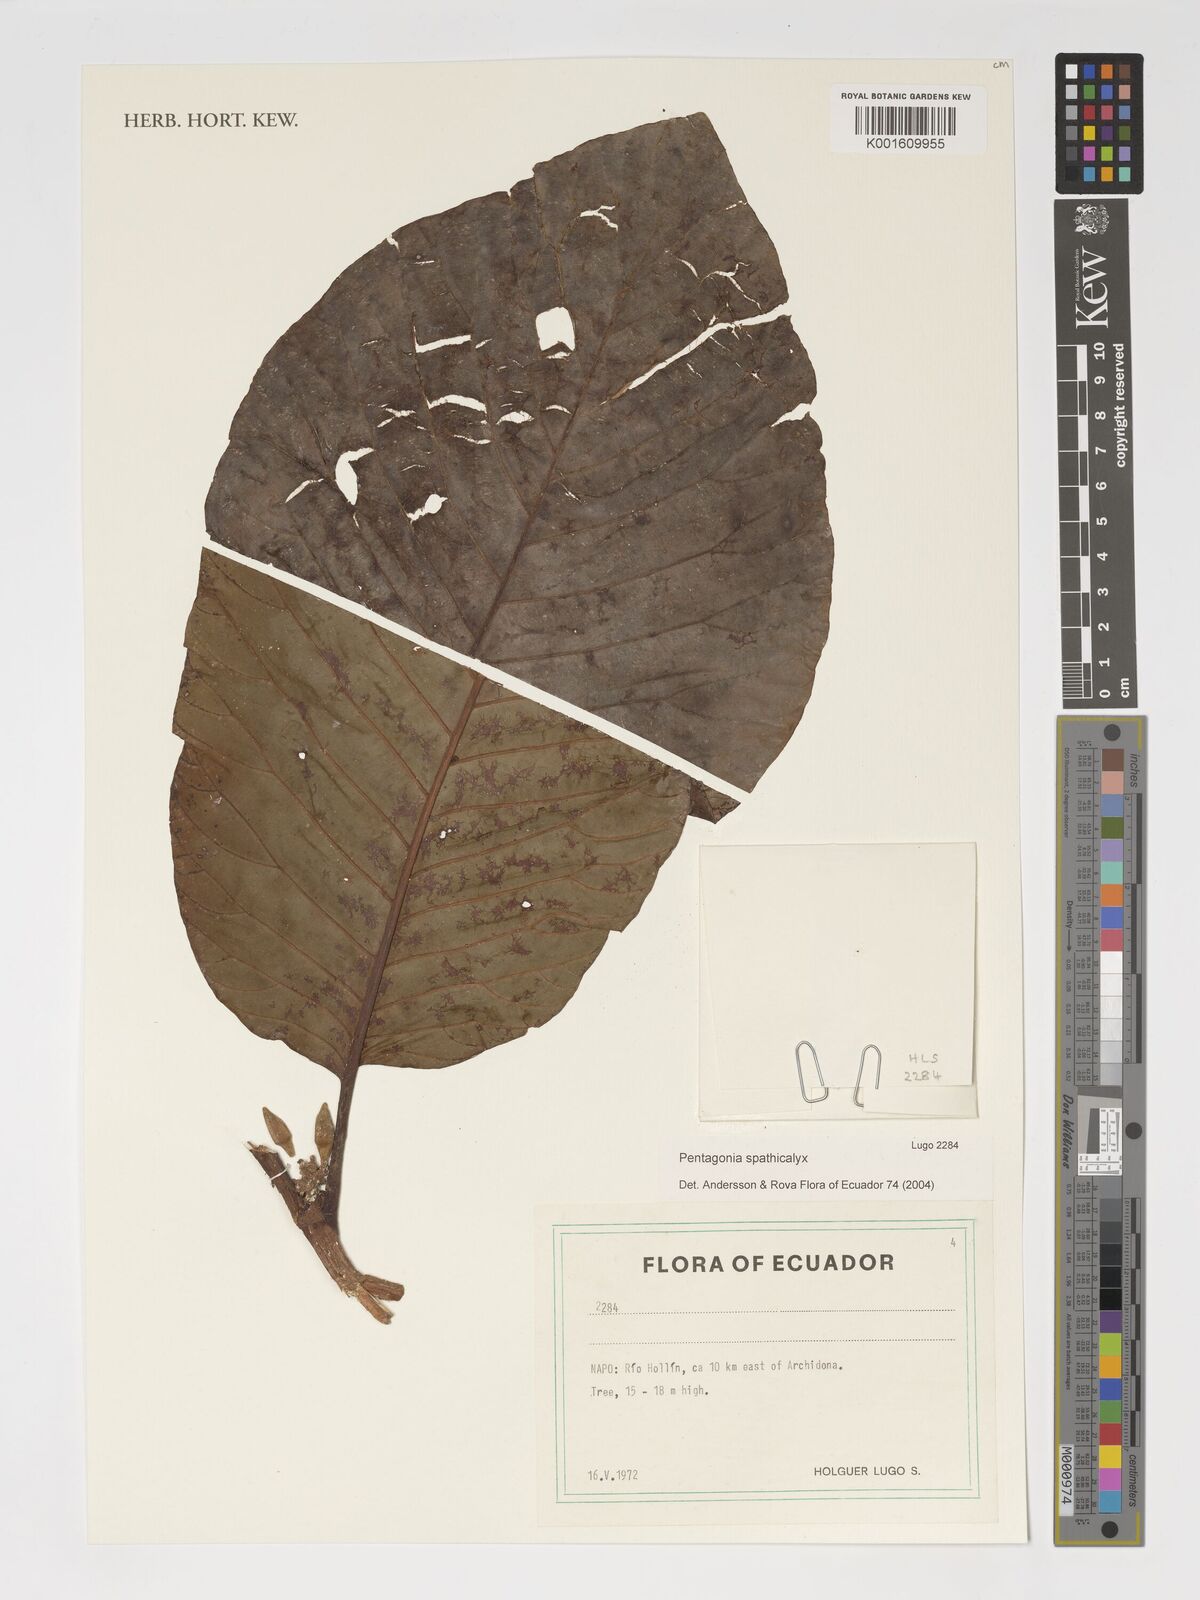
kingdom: Plantae
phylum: Tracheophyta
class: Magnoliopsida
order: Gentianales
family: Rubiaceae
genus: Pentagonia
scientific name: Pentagonia spathicalyx
